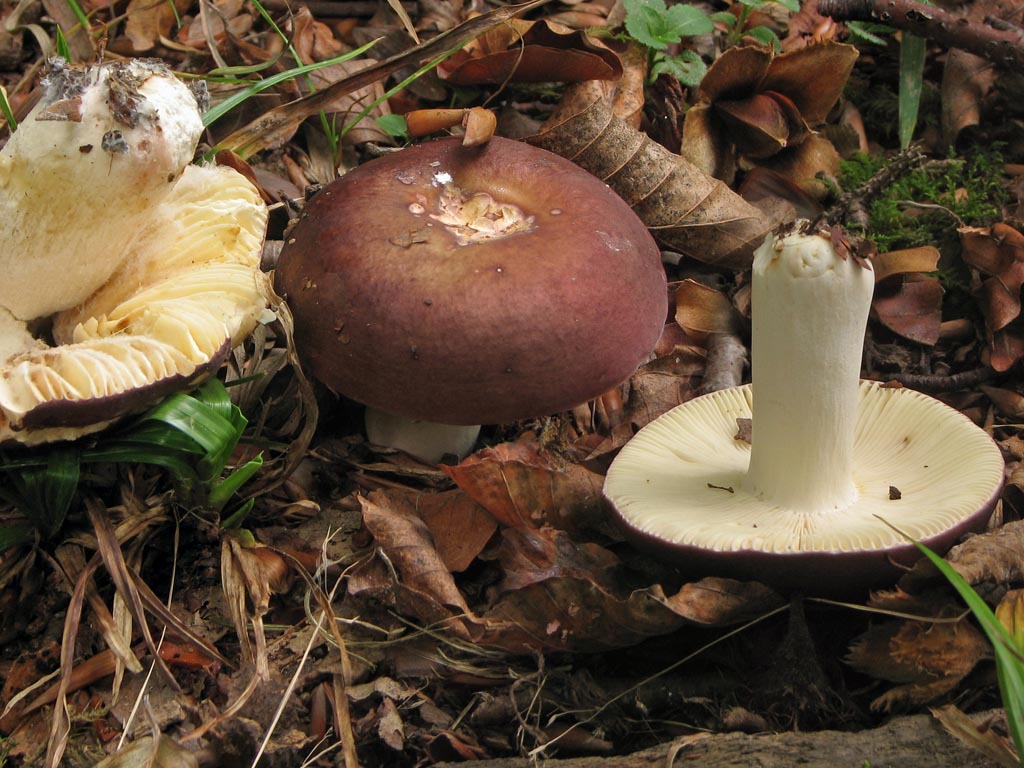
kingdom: Fungi
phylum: Basidiomycota
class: Agaricomycetes
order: Russulales
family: Russulaceae
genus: Russula
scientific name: Russula sericatula
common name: brunrød skørhat
